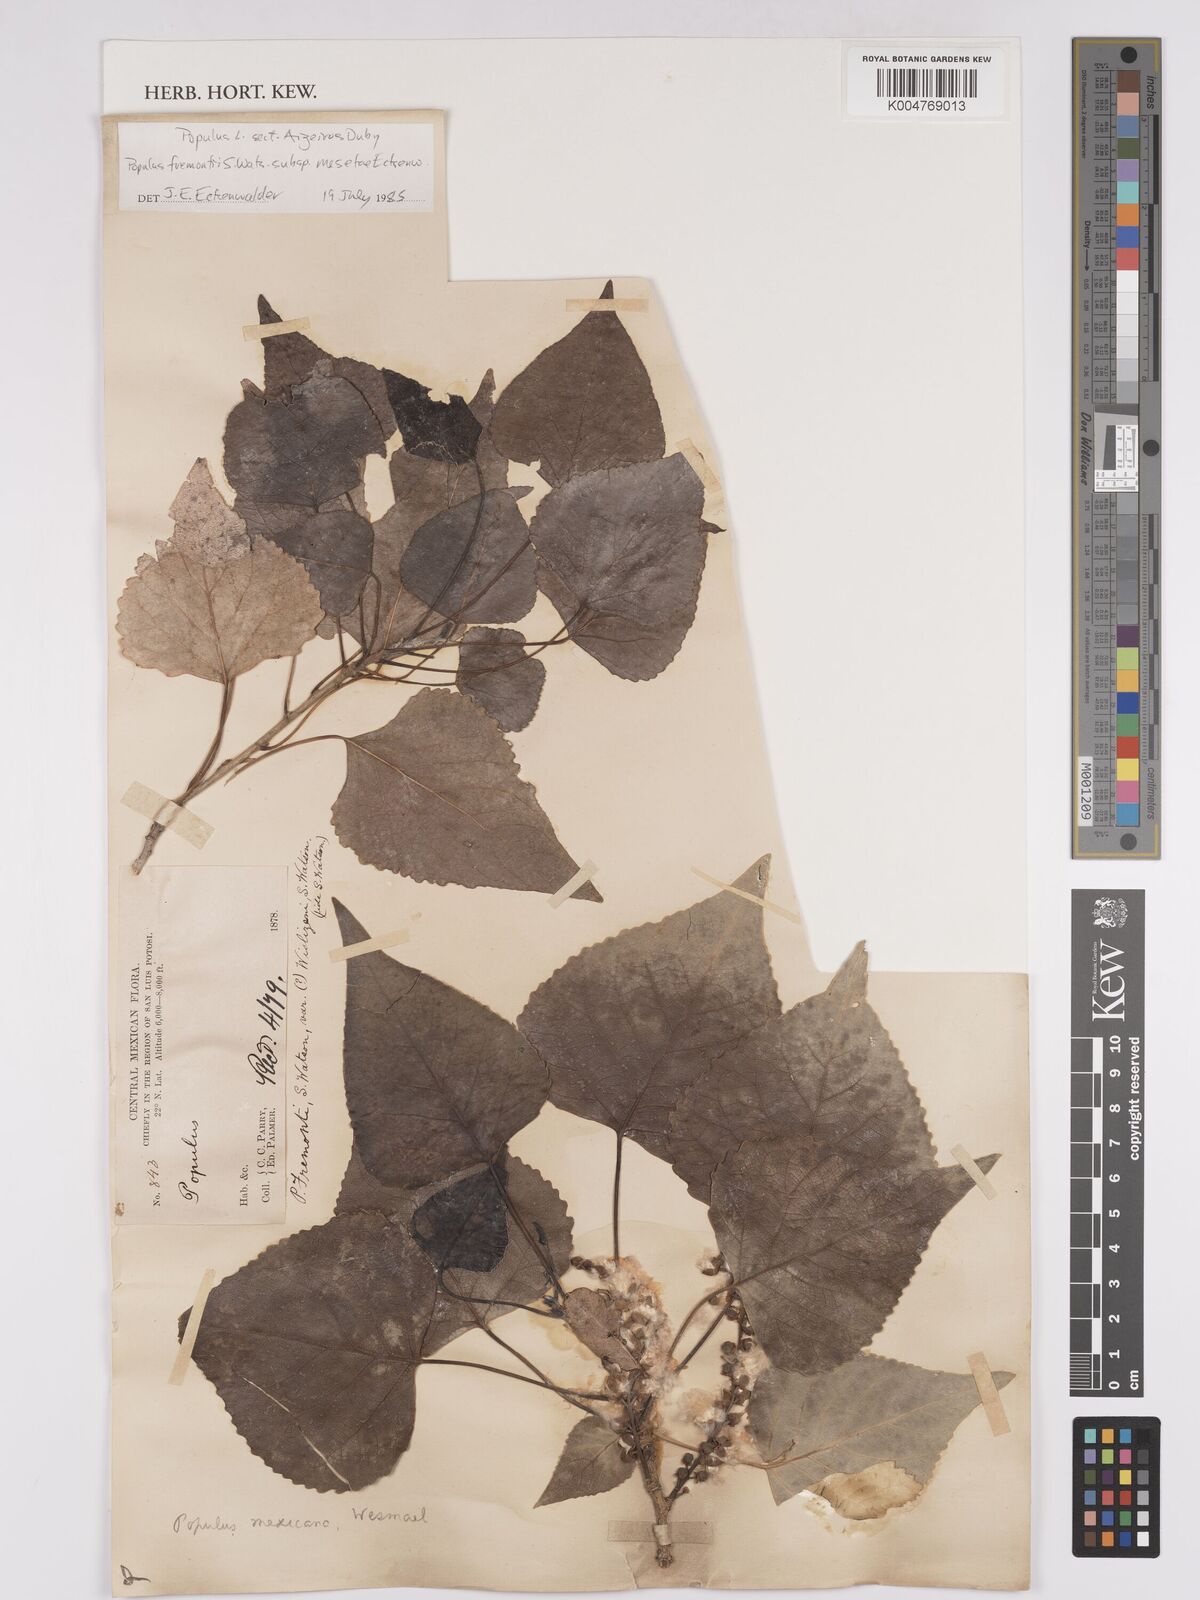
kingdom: Plantae
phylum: Tracheophyta
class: Magnoliopsida
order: Malpighiales
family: Salicaceae
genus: Populus
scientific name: Populus fremontii
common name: Fremont's cottonwood
